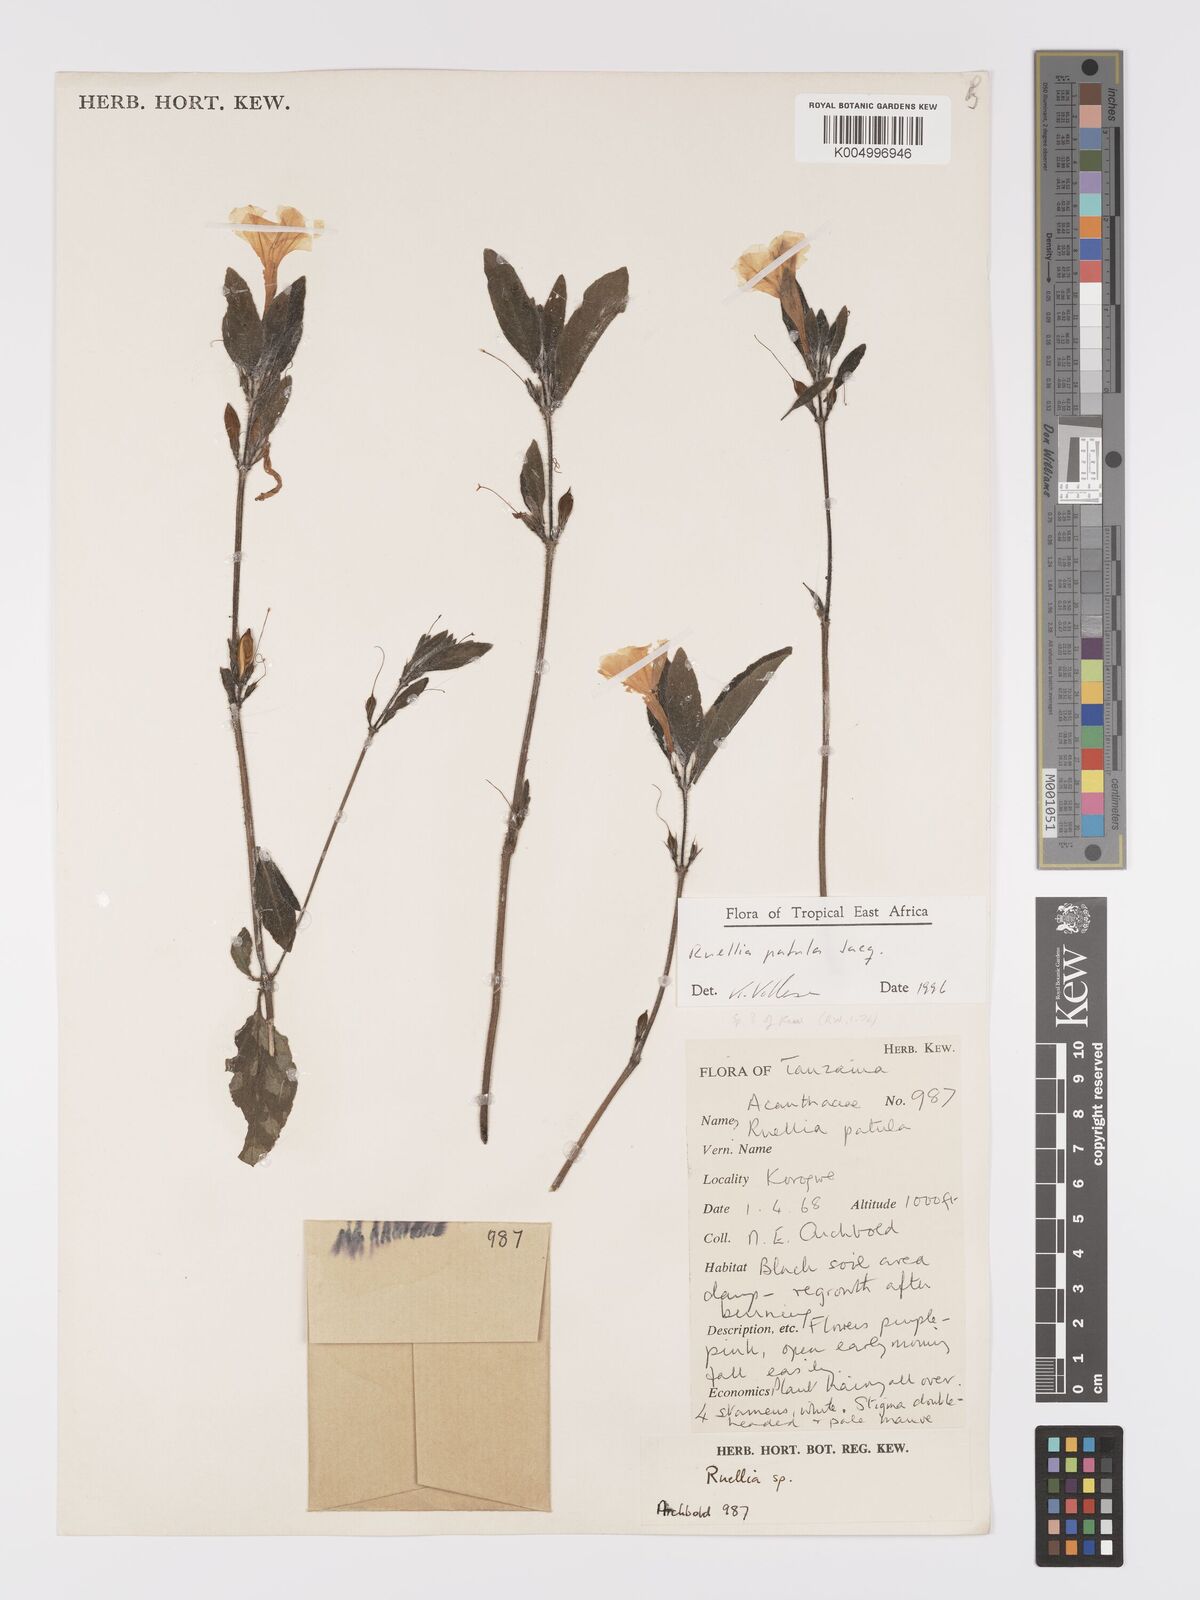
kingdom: Plantae
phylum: Tracheophyta
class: Magnoliopsida
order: Lamiales
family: Acanthaceae
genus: Ruellia
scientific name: Ruellia patula
